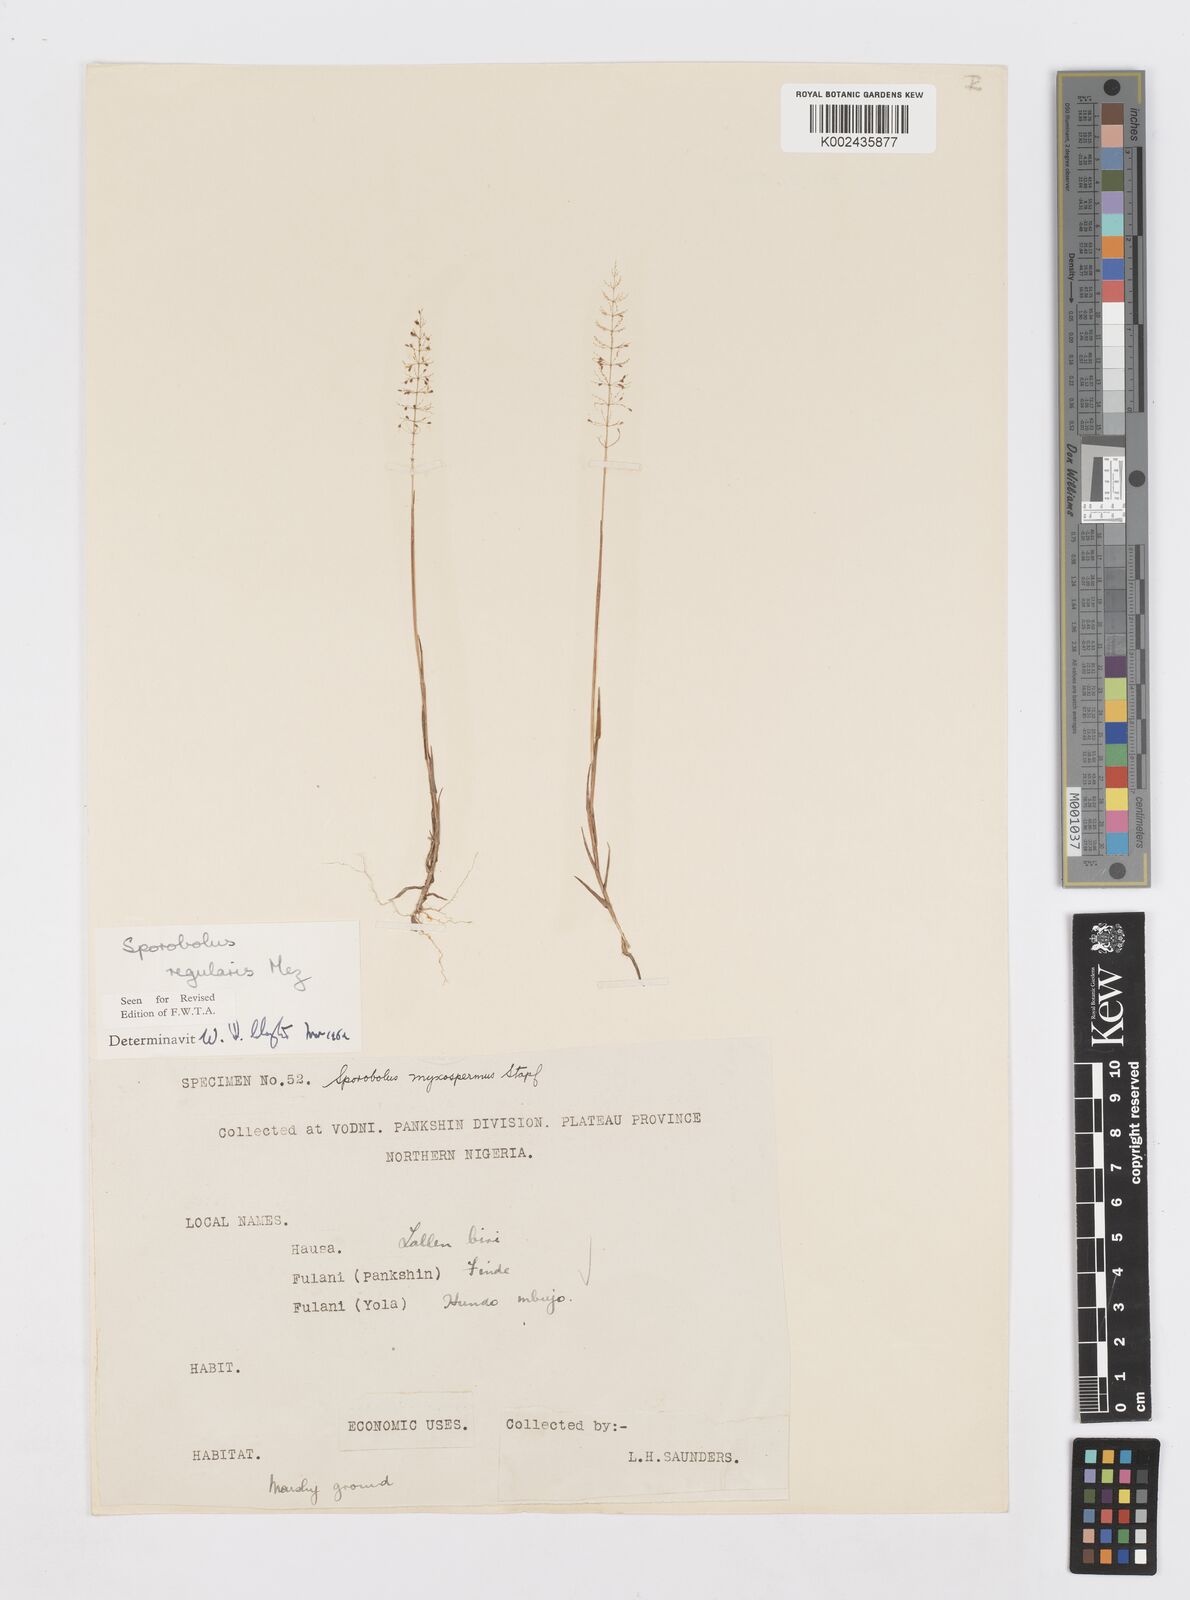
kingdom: Plantae
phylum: Tracheophyta
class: Liliopsida
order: Poales
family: Poaceae
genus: Sporobolus
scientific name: Sporobolus micranthus
